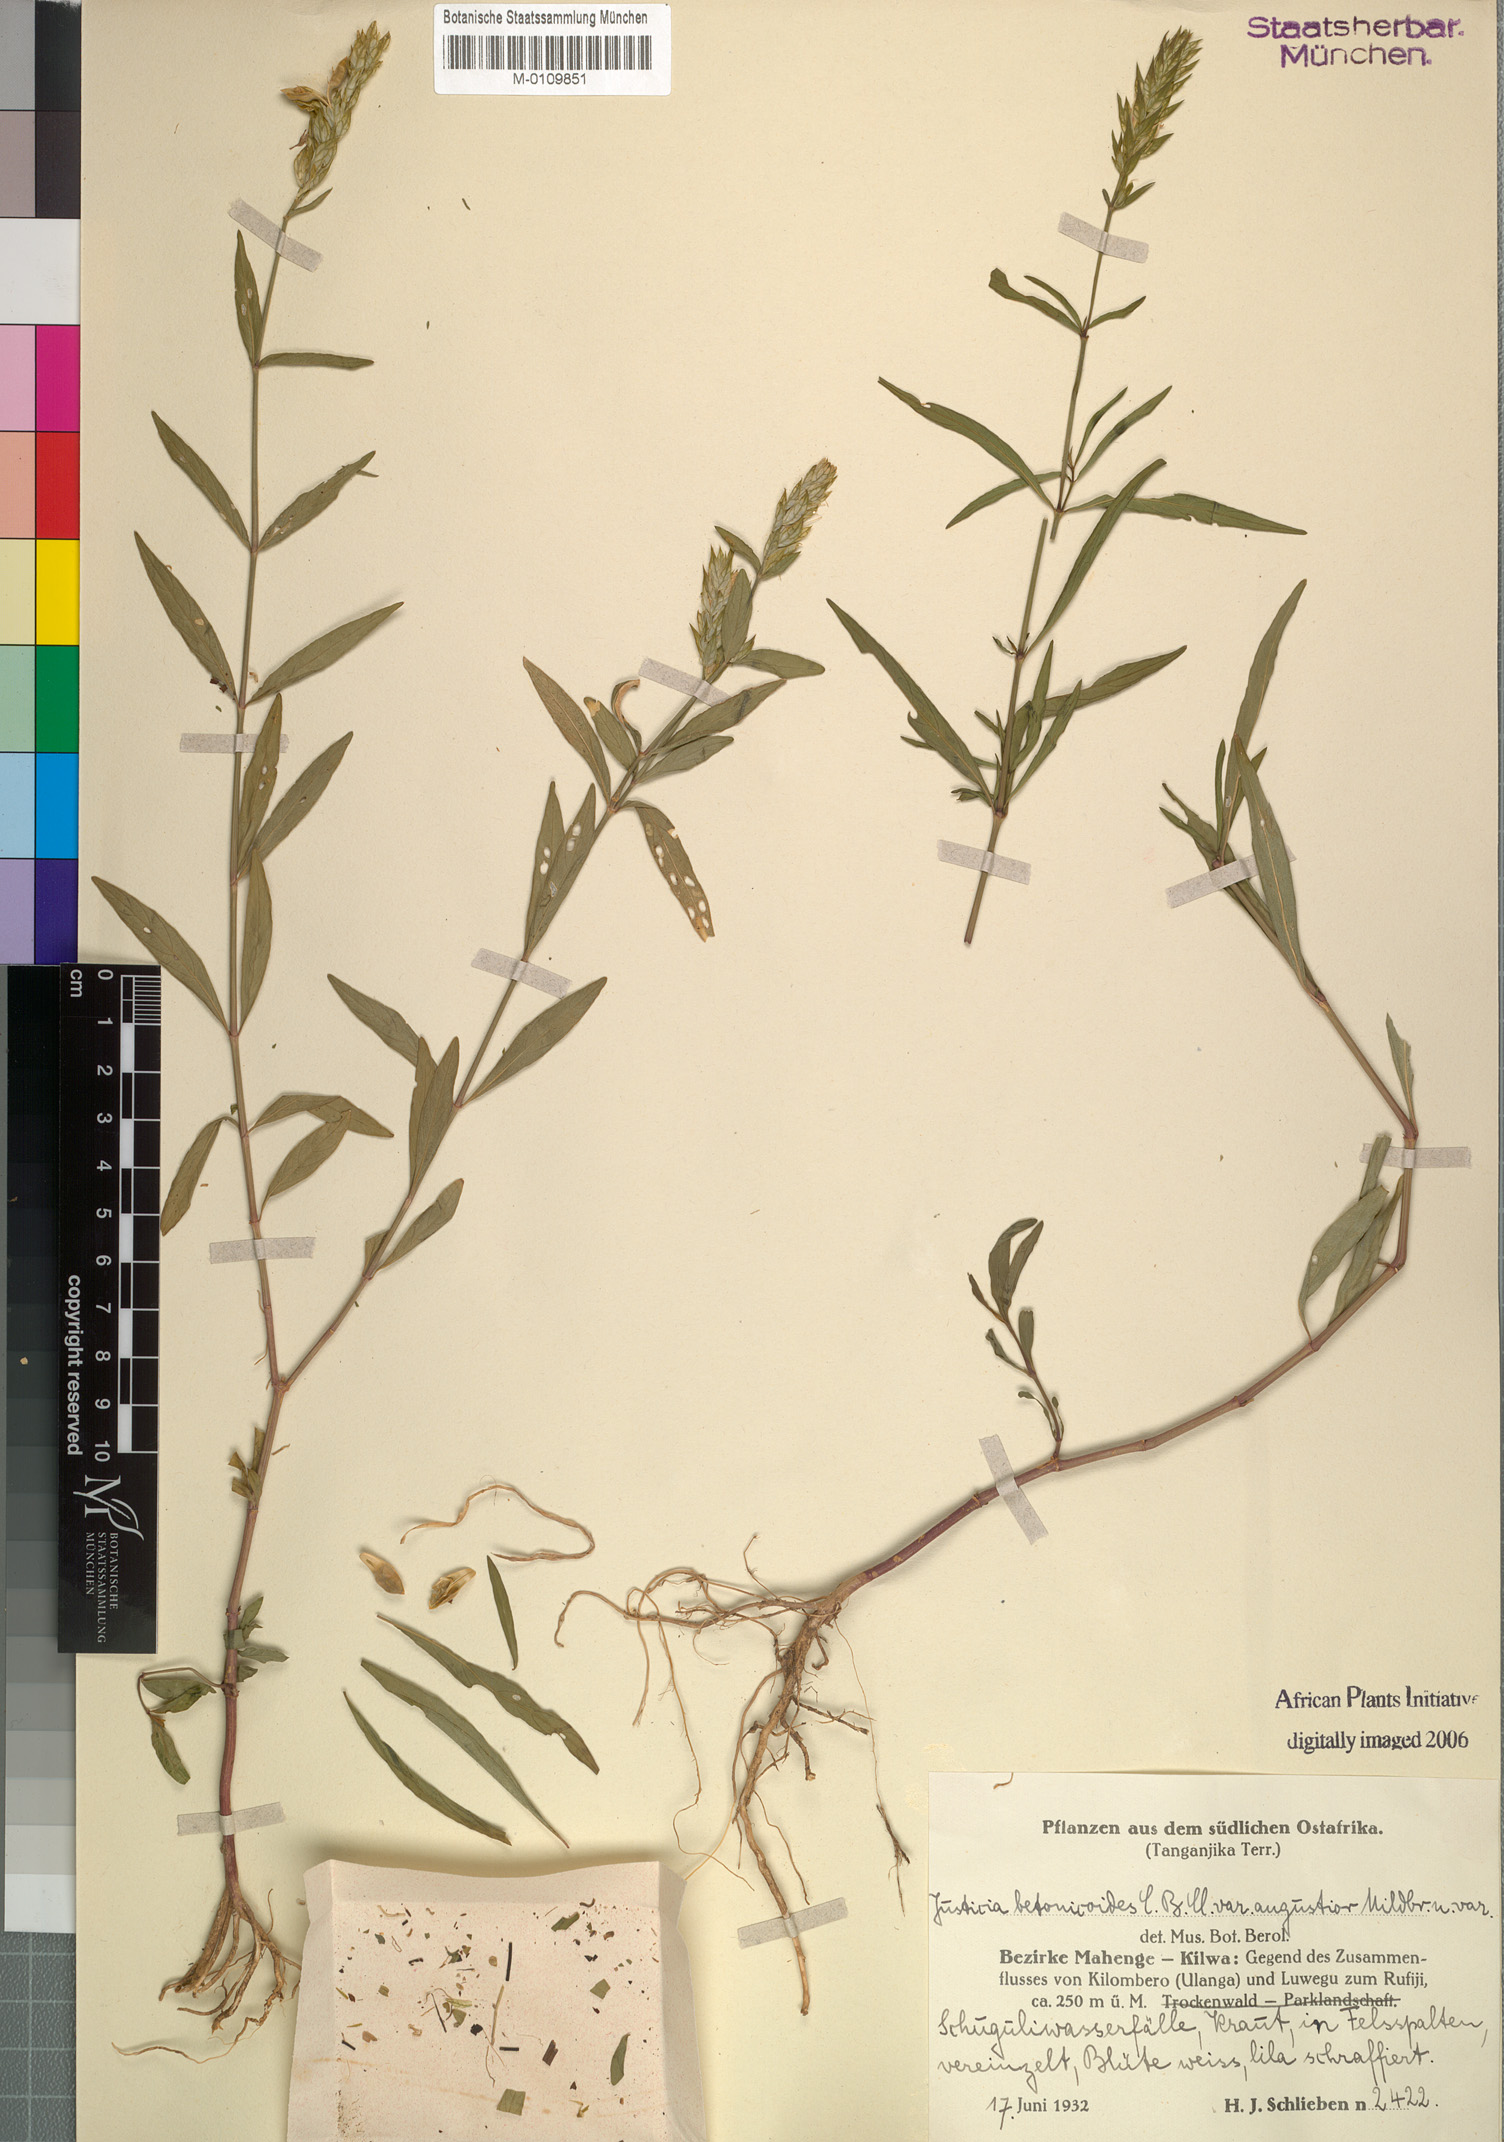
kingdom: Plantae
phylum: Tracheophyta
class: Magnoliopsida
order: Lamiales
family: Acanthaceae
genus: Nicoteba
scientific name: Nicoteba betonica
